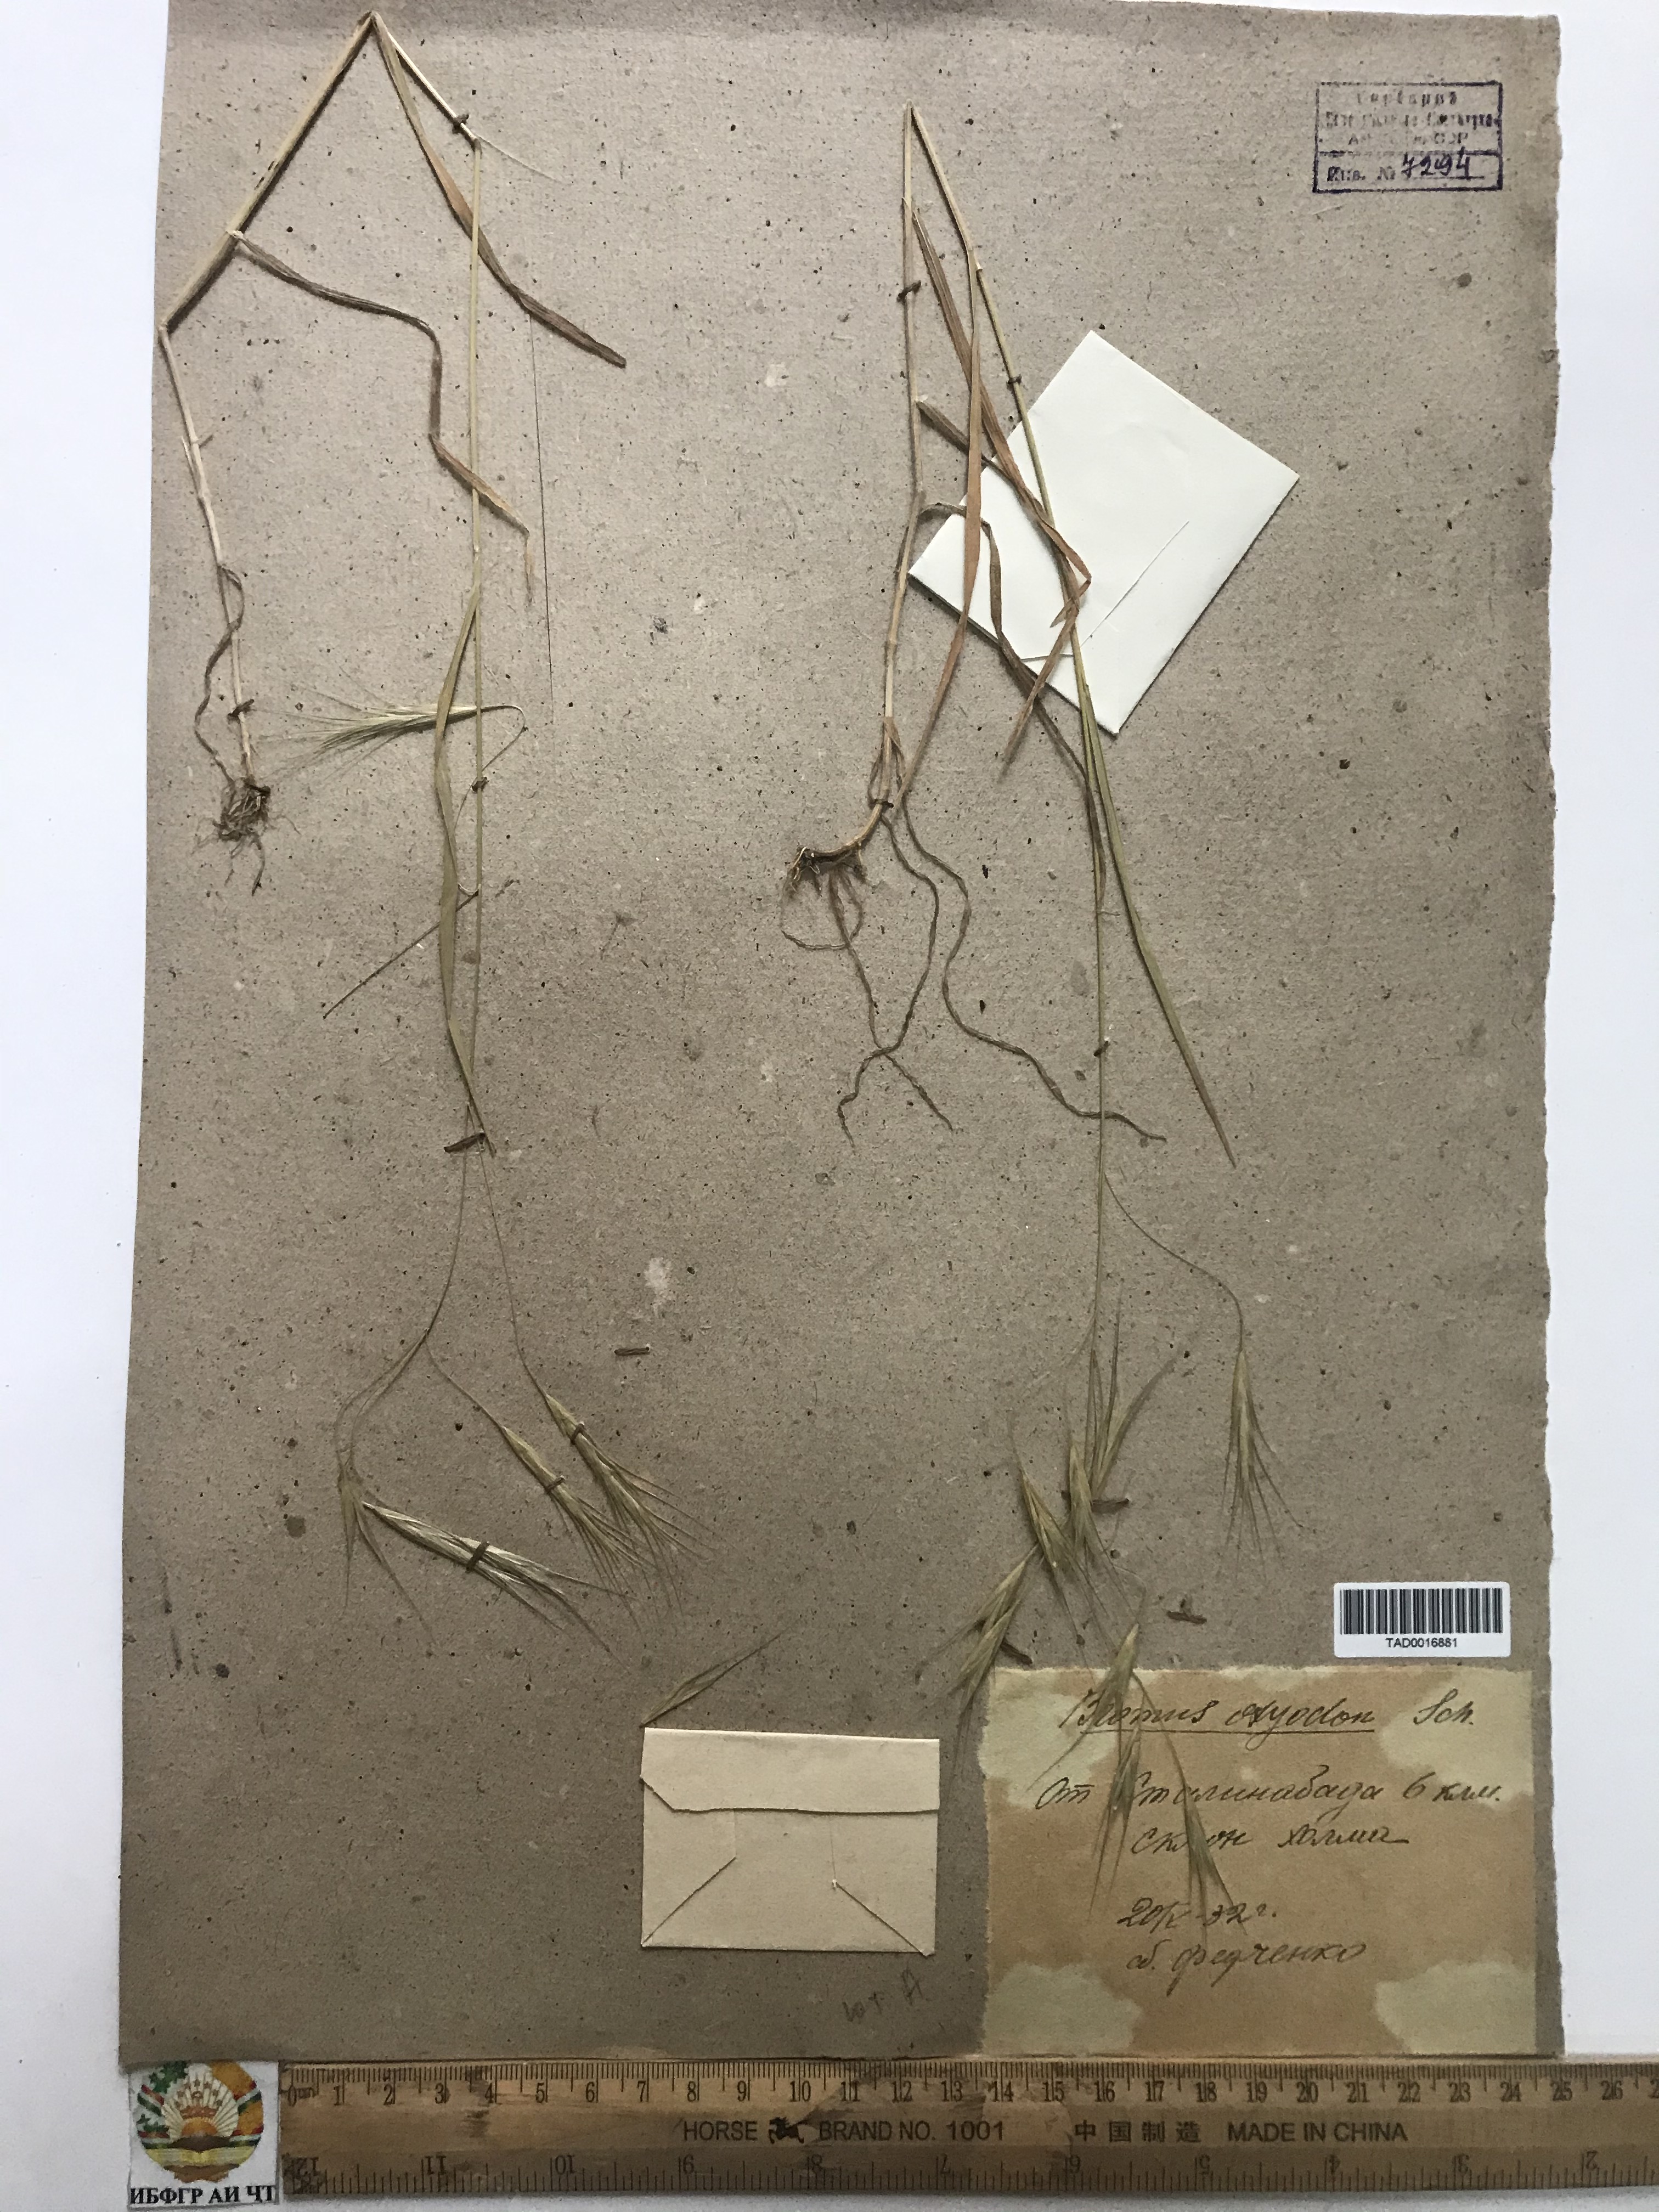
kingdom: Plantae
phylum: Tracheophyta
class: Liliopsida
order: Poales
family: Poaceae
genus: Bromus
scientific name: Bromus oxyodon
